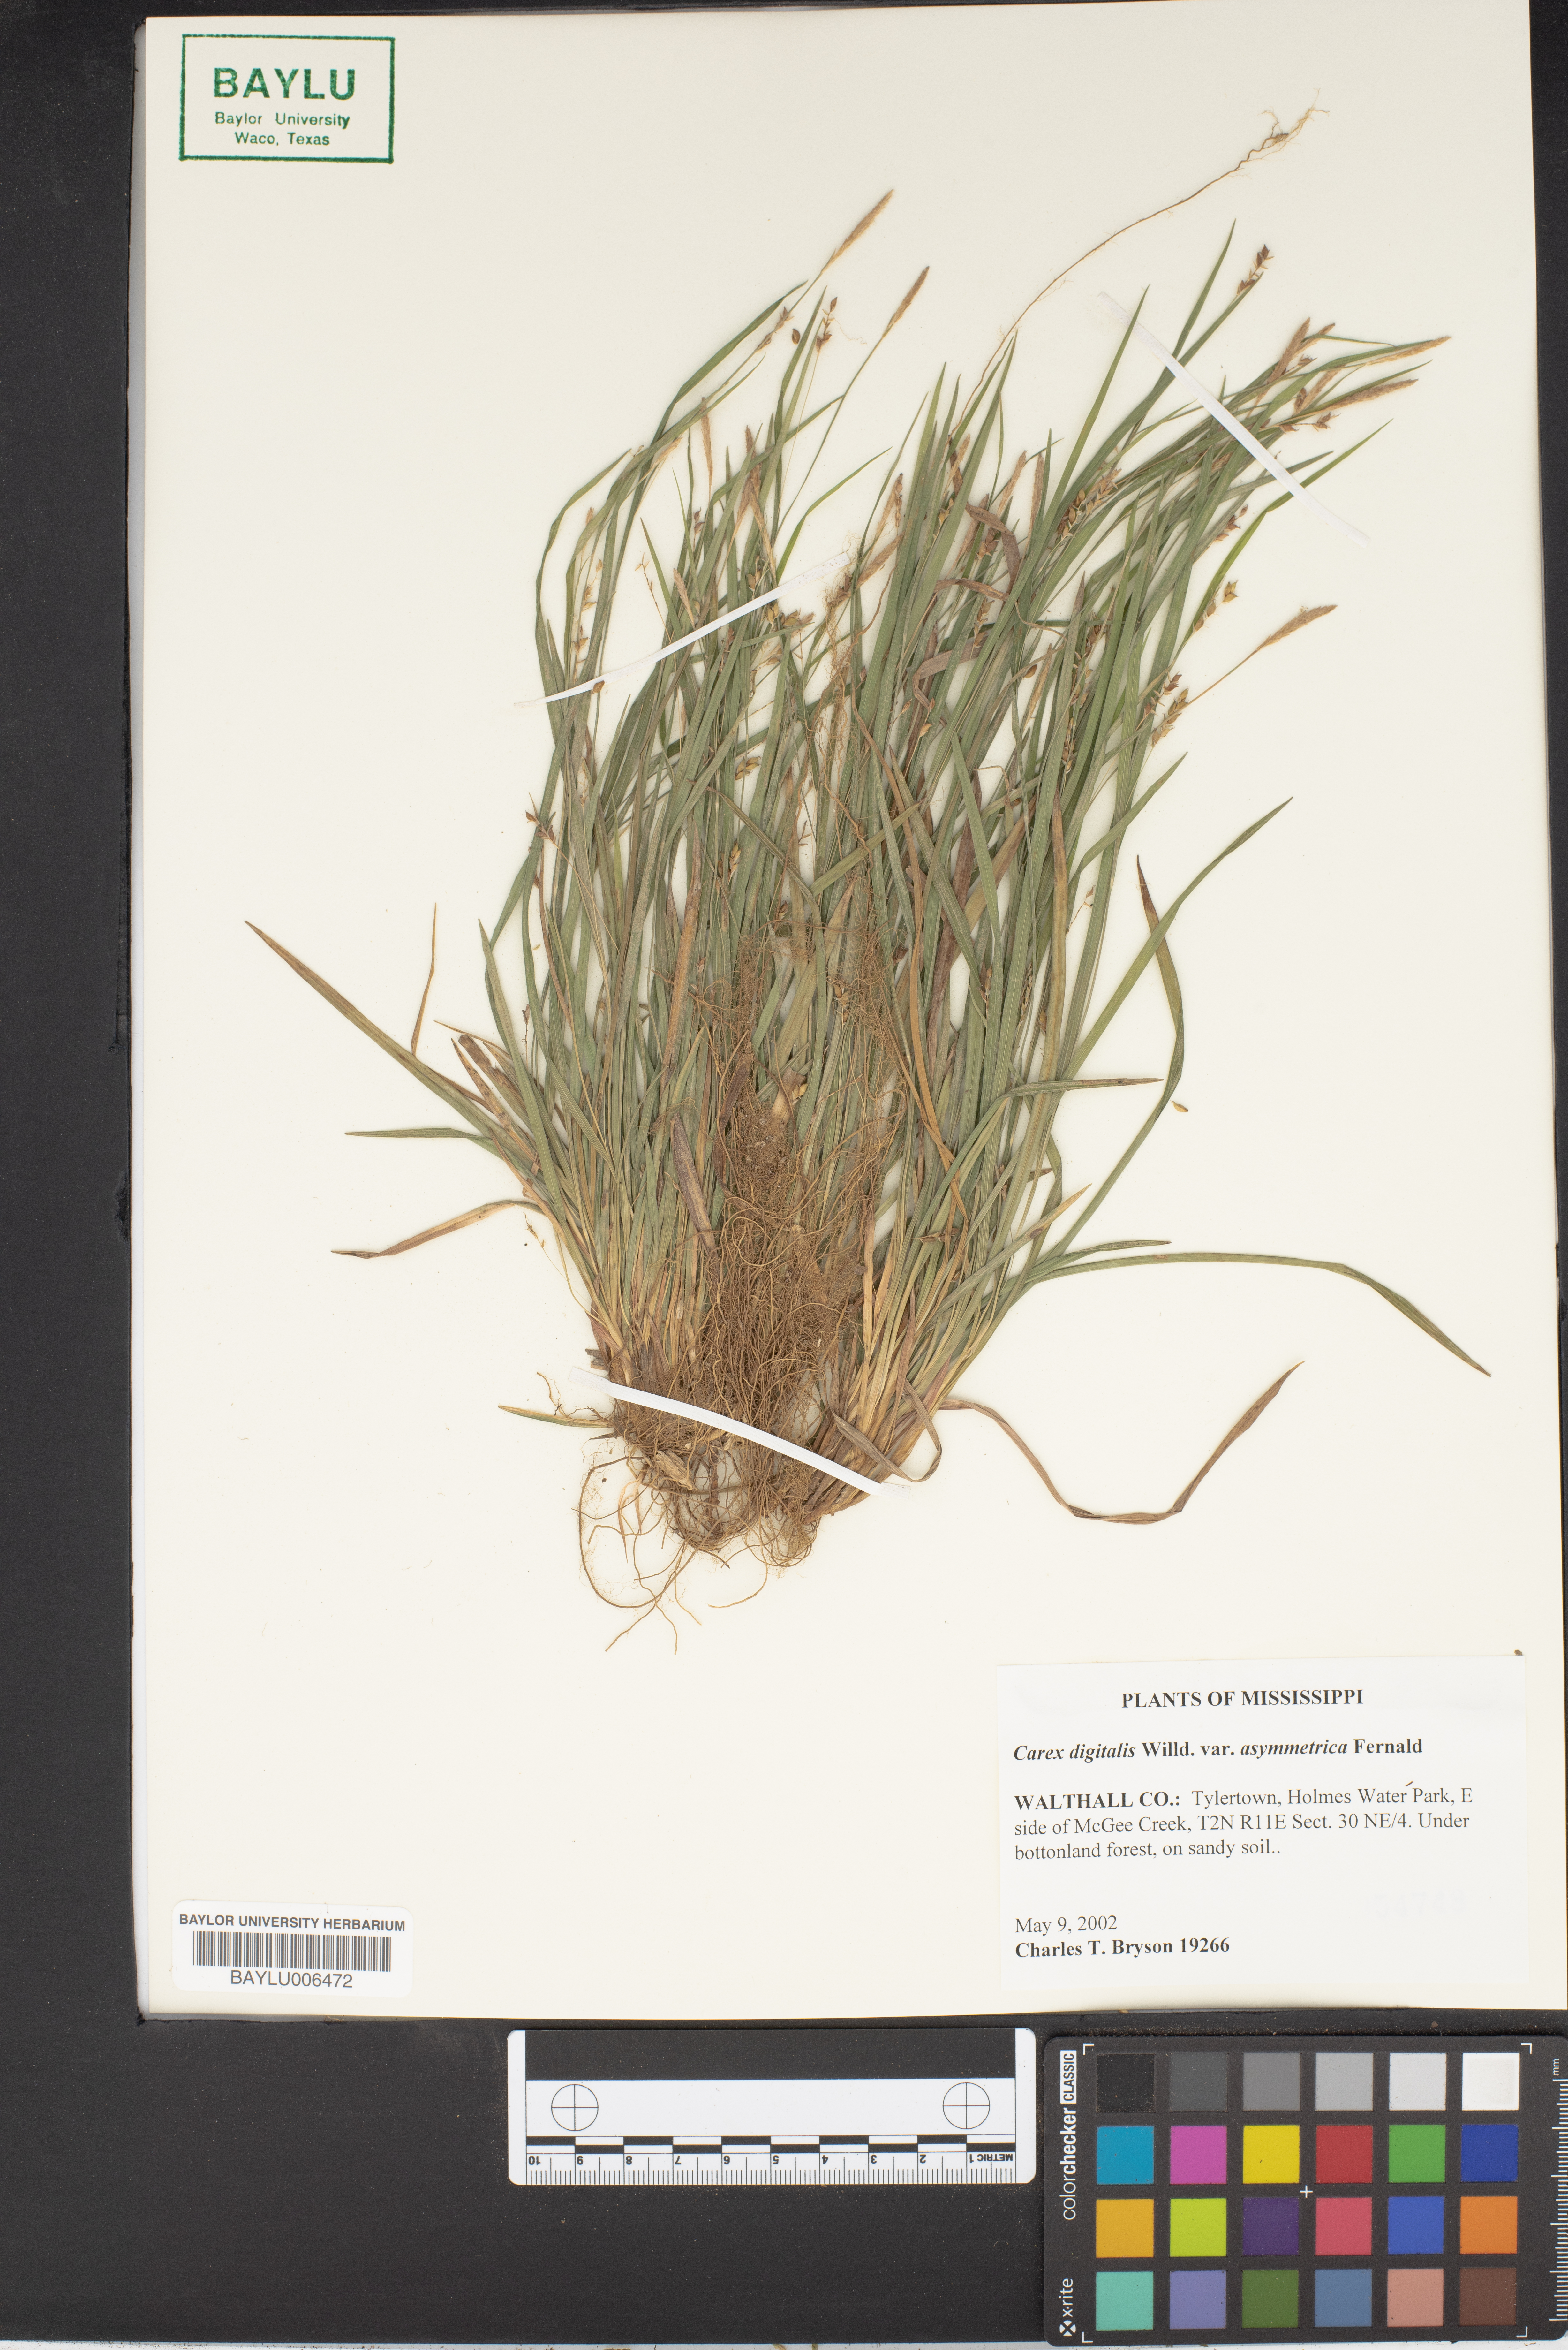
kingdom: Plantae
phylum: Tracheophyta
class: Liliopsida
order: Poales
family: Cyperaceae
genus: Carex
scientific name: Carex digitalis
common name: Slender wood sedge
